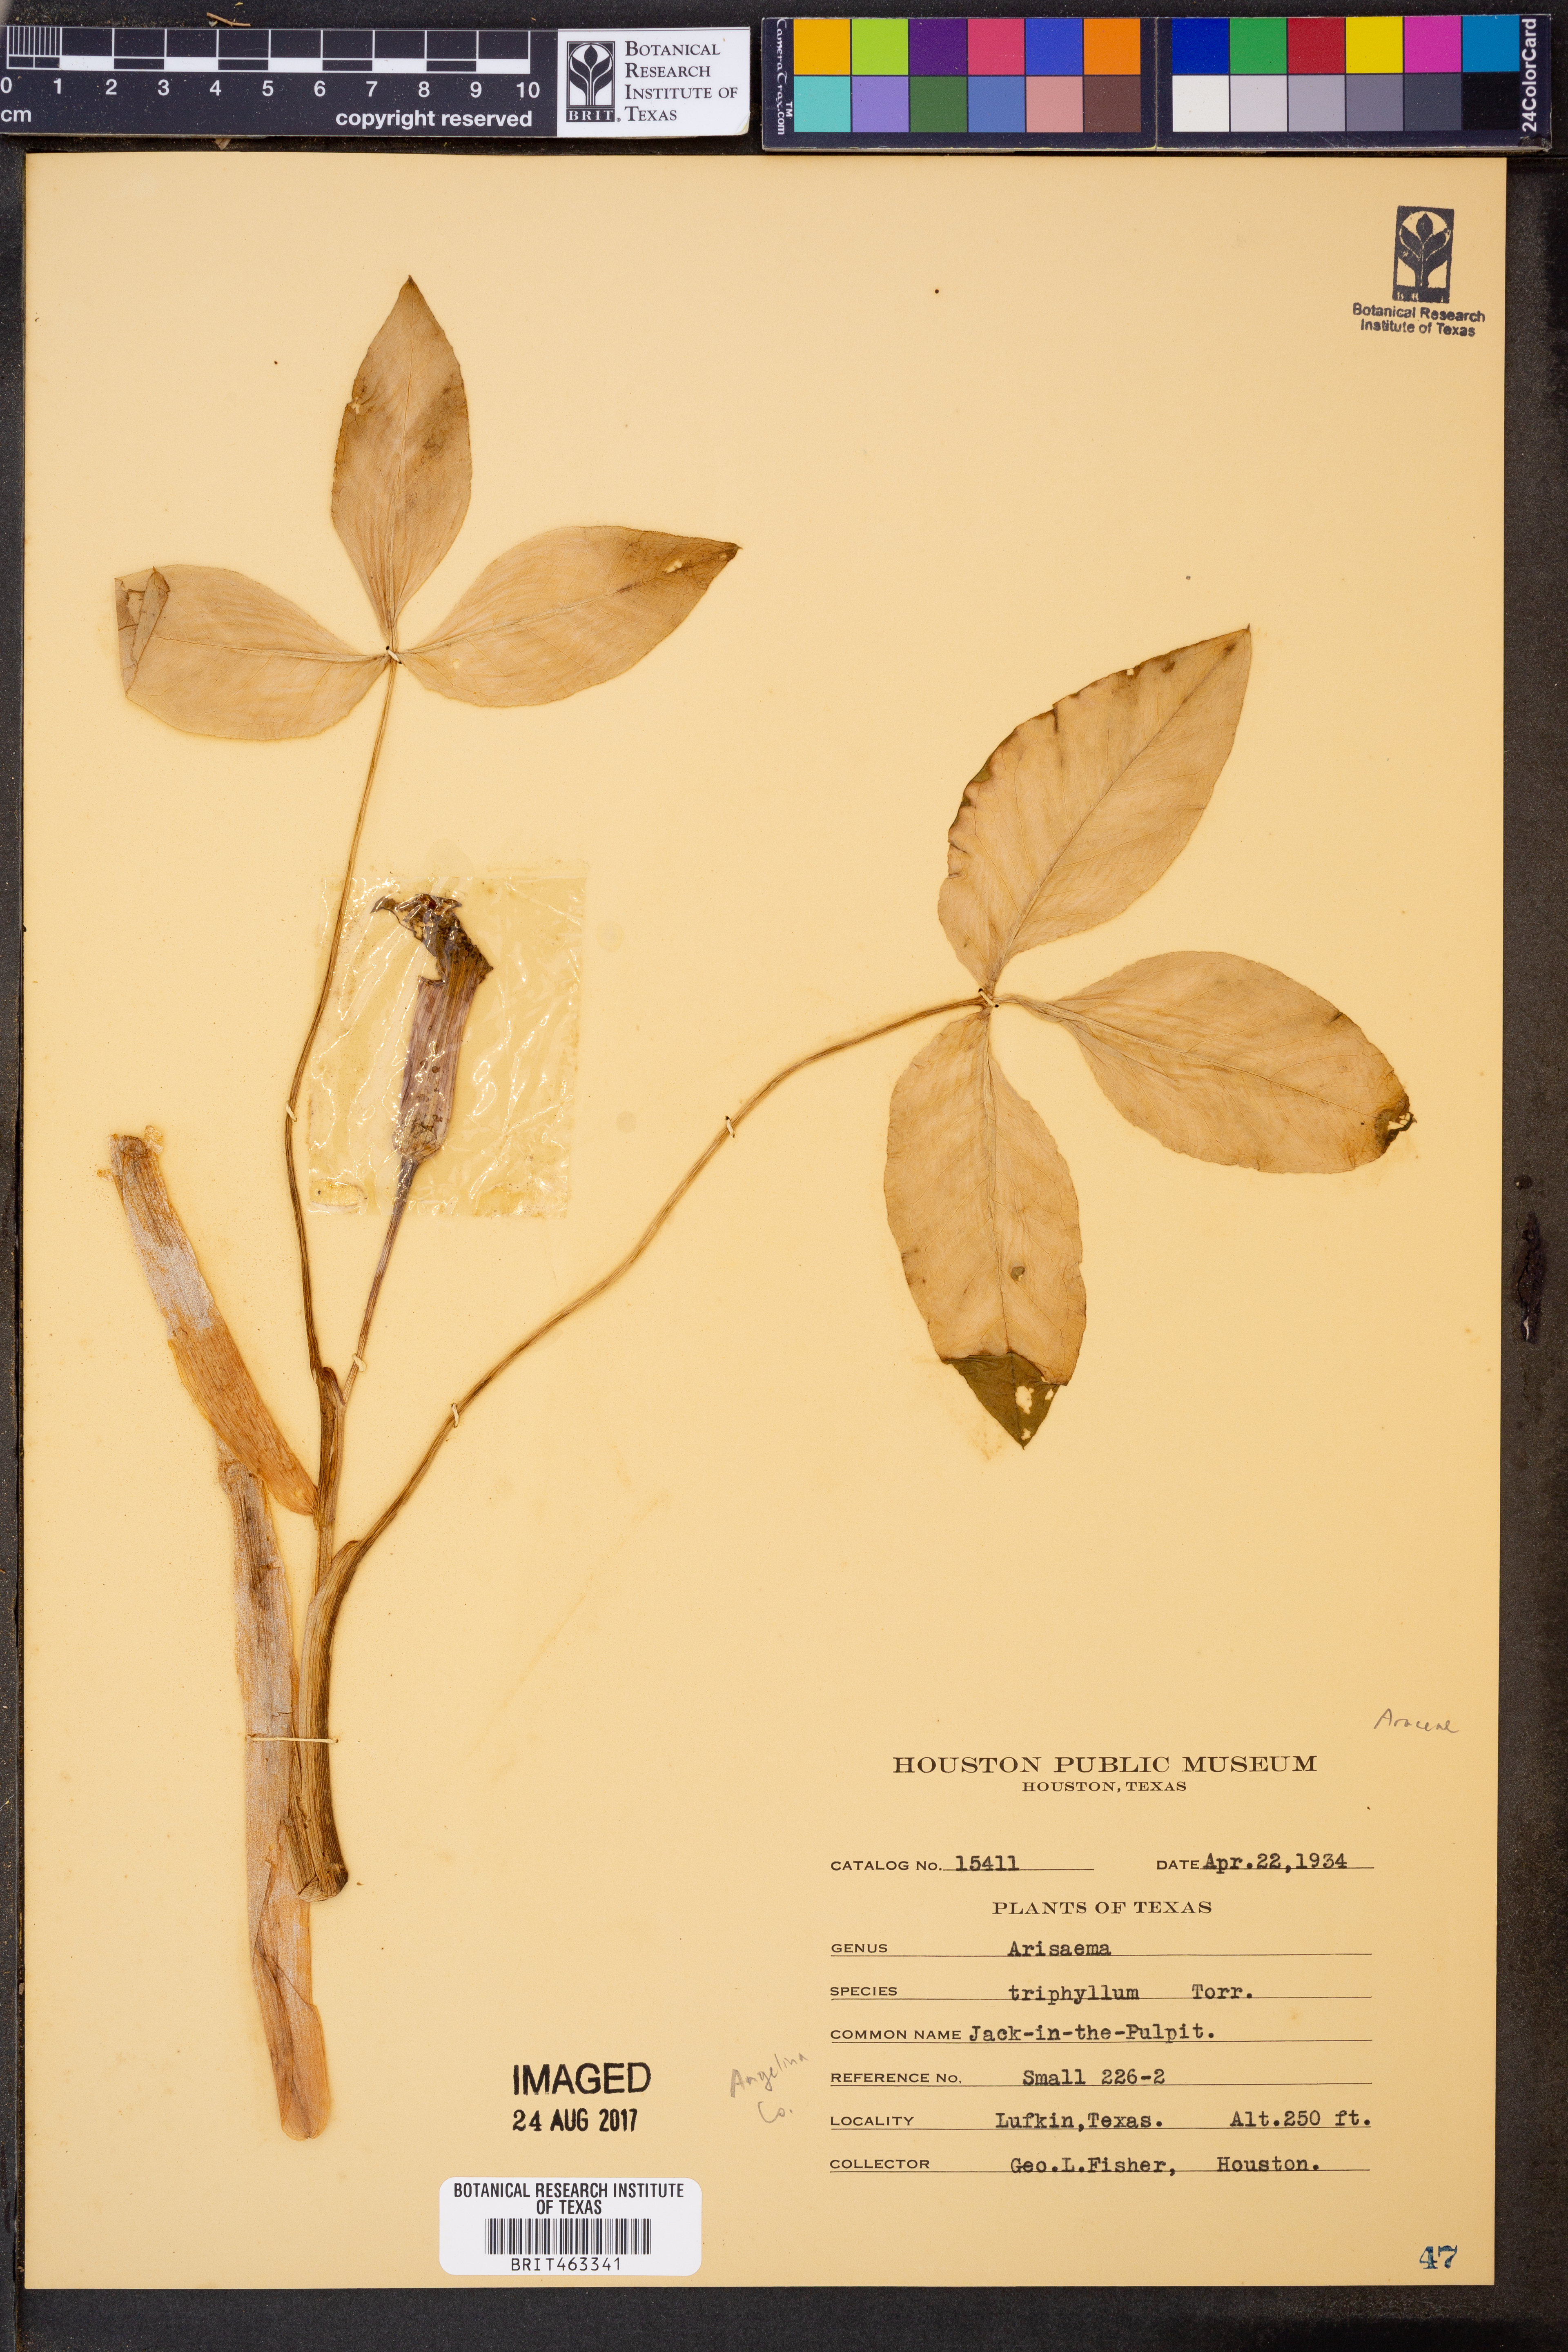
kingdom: Plantae
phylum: Tracheophyta
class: Liliopsida
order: Alismatales
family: Araceae
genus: Arisaema
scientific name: Arisaema triphyllum
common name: Jack-in-the-pulpit
